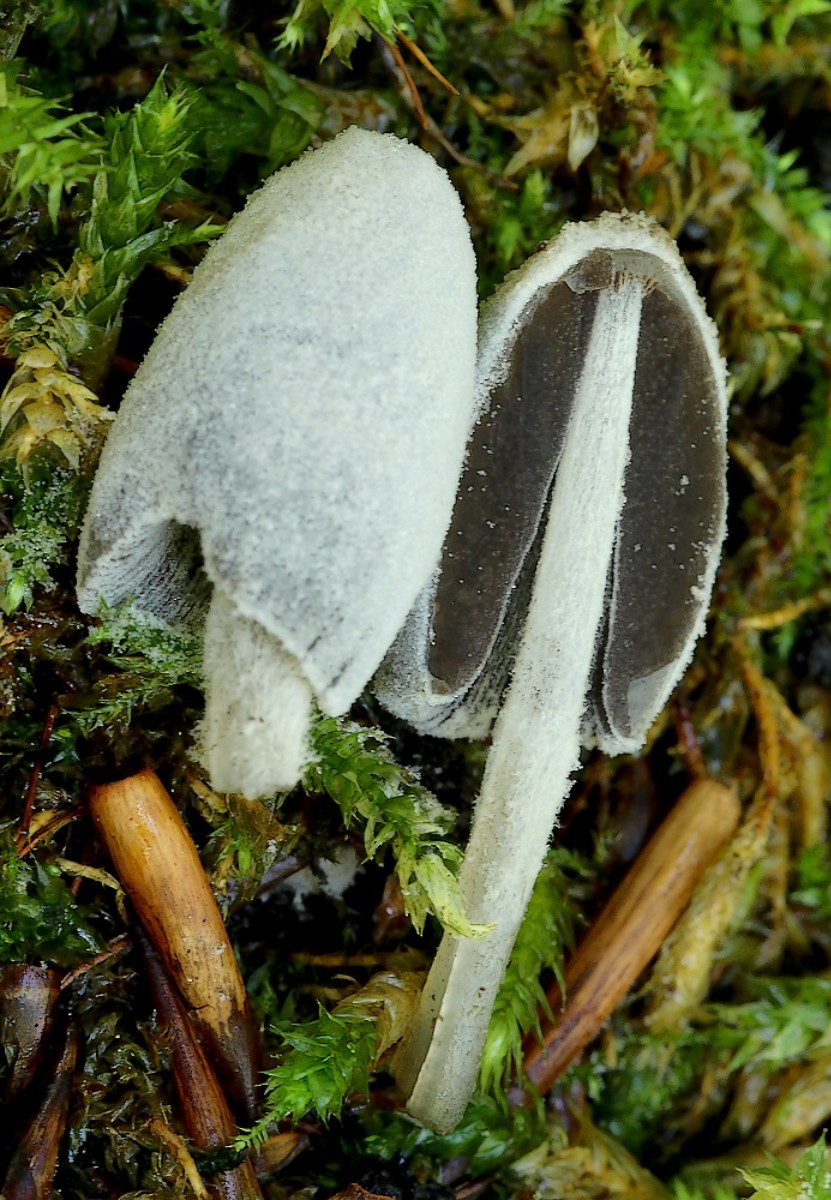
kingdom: Fungi
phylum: Basidiomycota
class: Agaricomycetes
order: Agaricales
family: Psathyrellaceae
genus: Coprinopsis
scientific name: Coprinopsis laanii
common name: stub-blækhat
